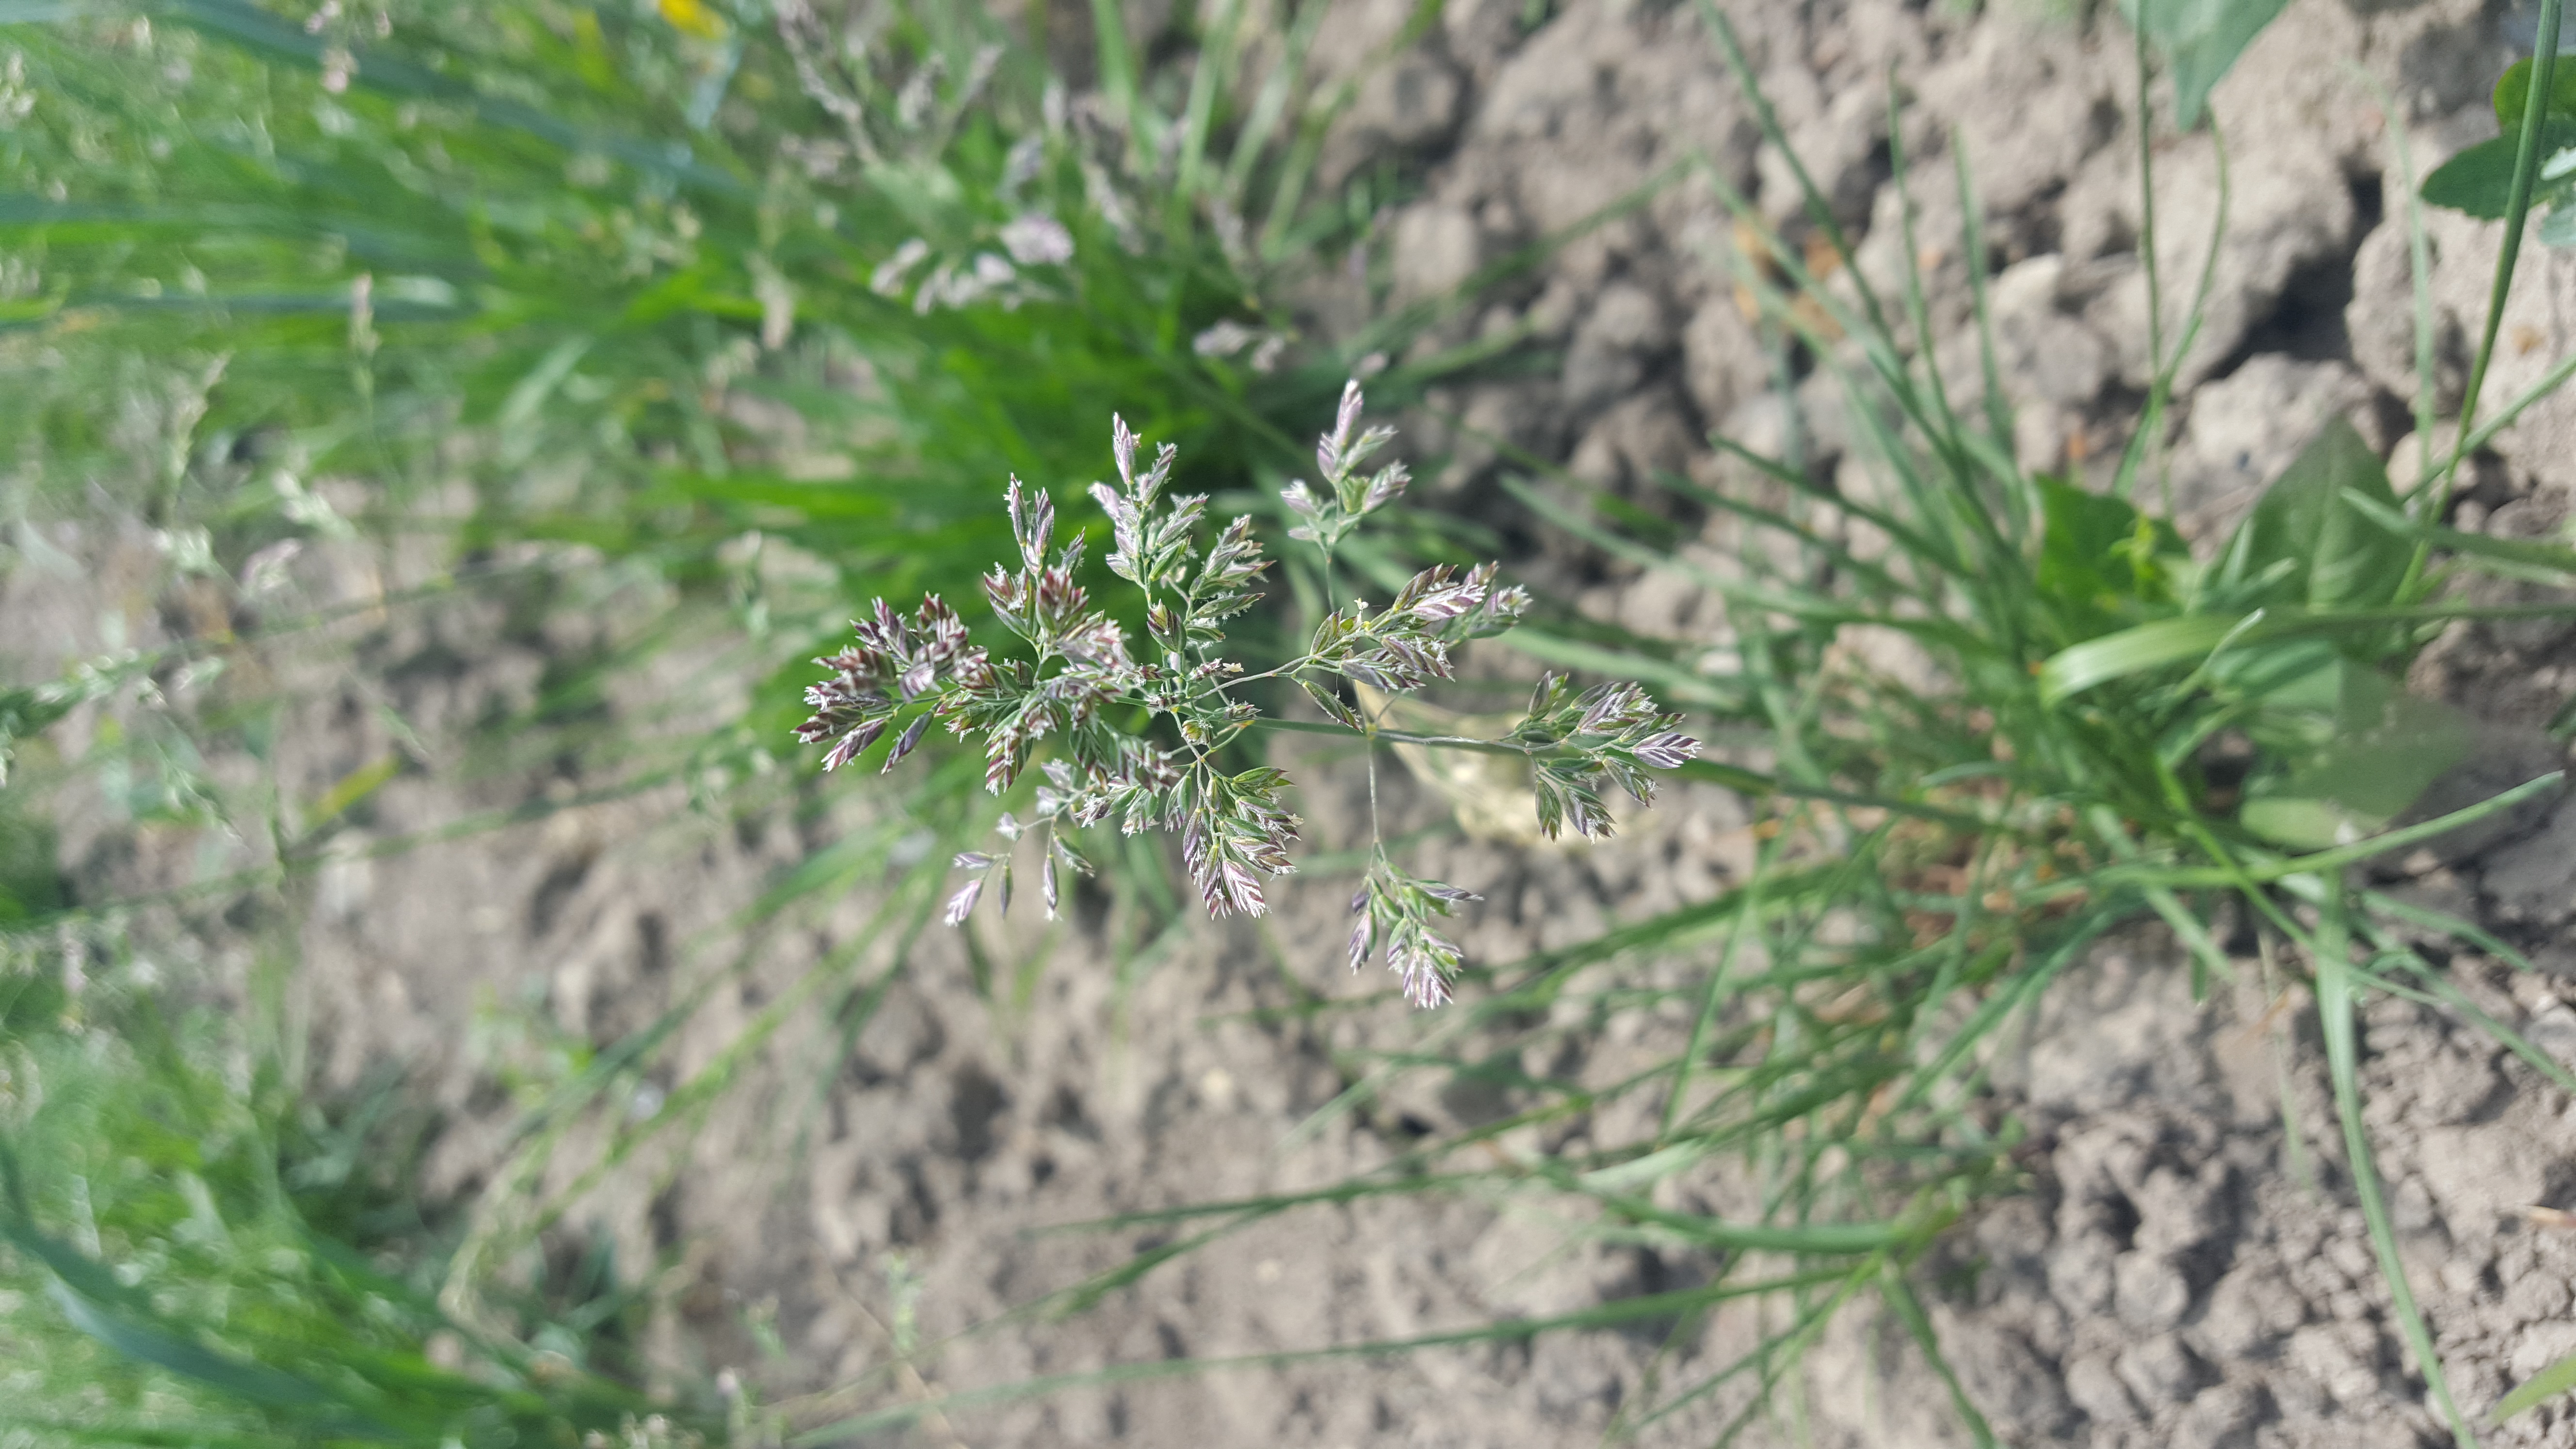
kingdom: Plantae
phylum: Tracheophyta
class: Liliopsida
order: Poales
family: Poaceae
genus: Poa
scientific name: Poa pratensis
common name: Kentucky bluegrass
